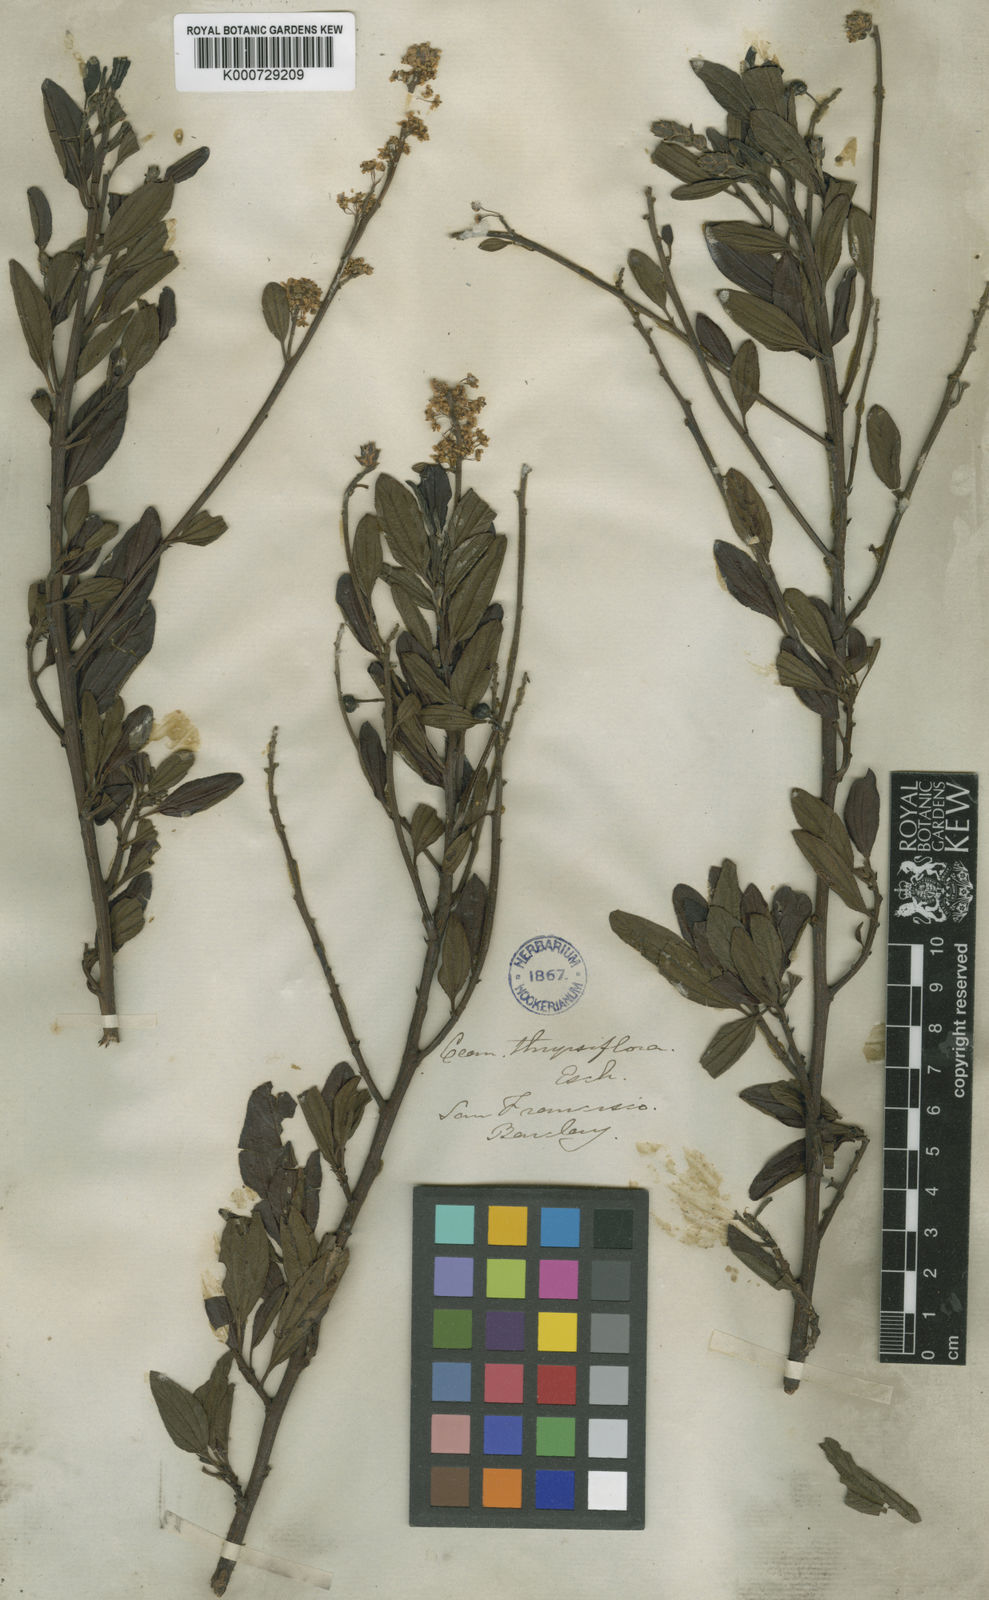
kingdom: Plantae
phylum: Tracheophyta
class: Magnoliopsida
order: Rosales
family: Rhamnaceae
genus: Ceanothus
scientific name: Ceanothus thyrsiflorus
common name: California-lilac
